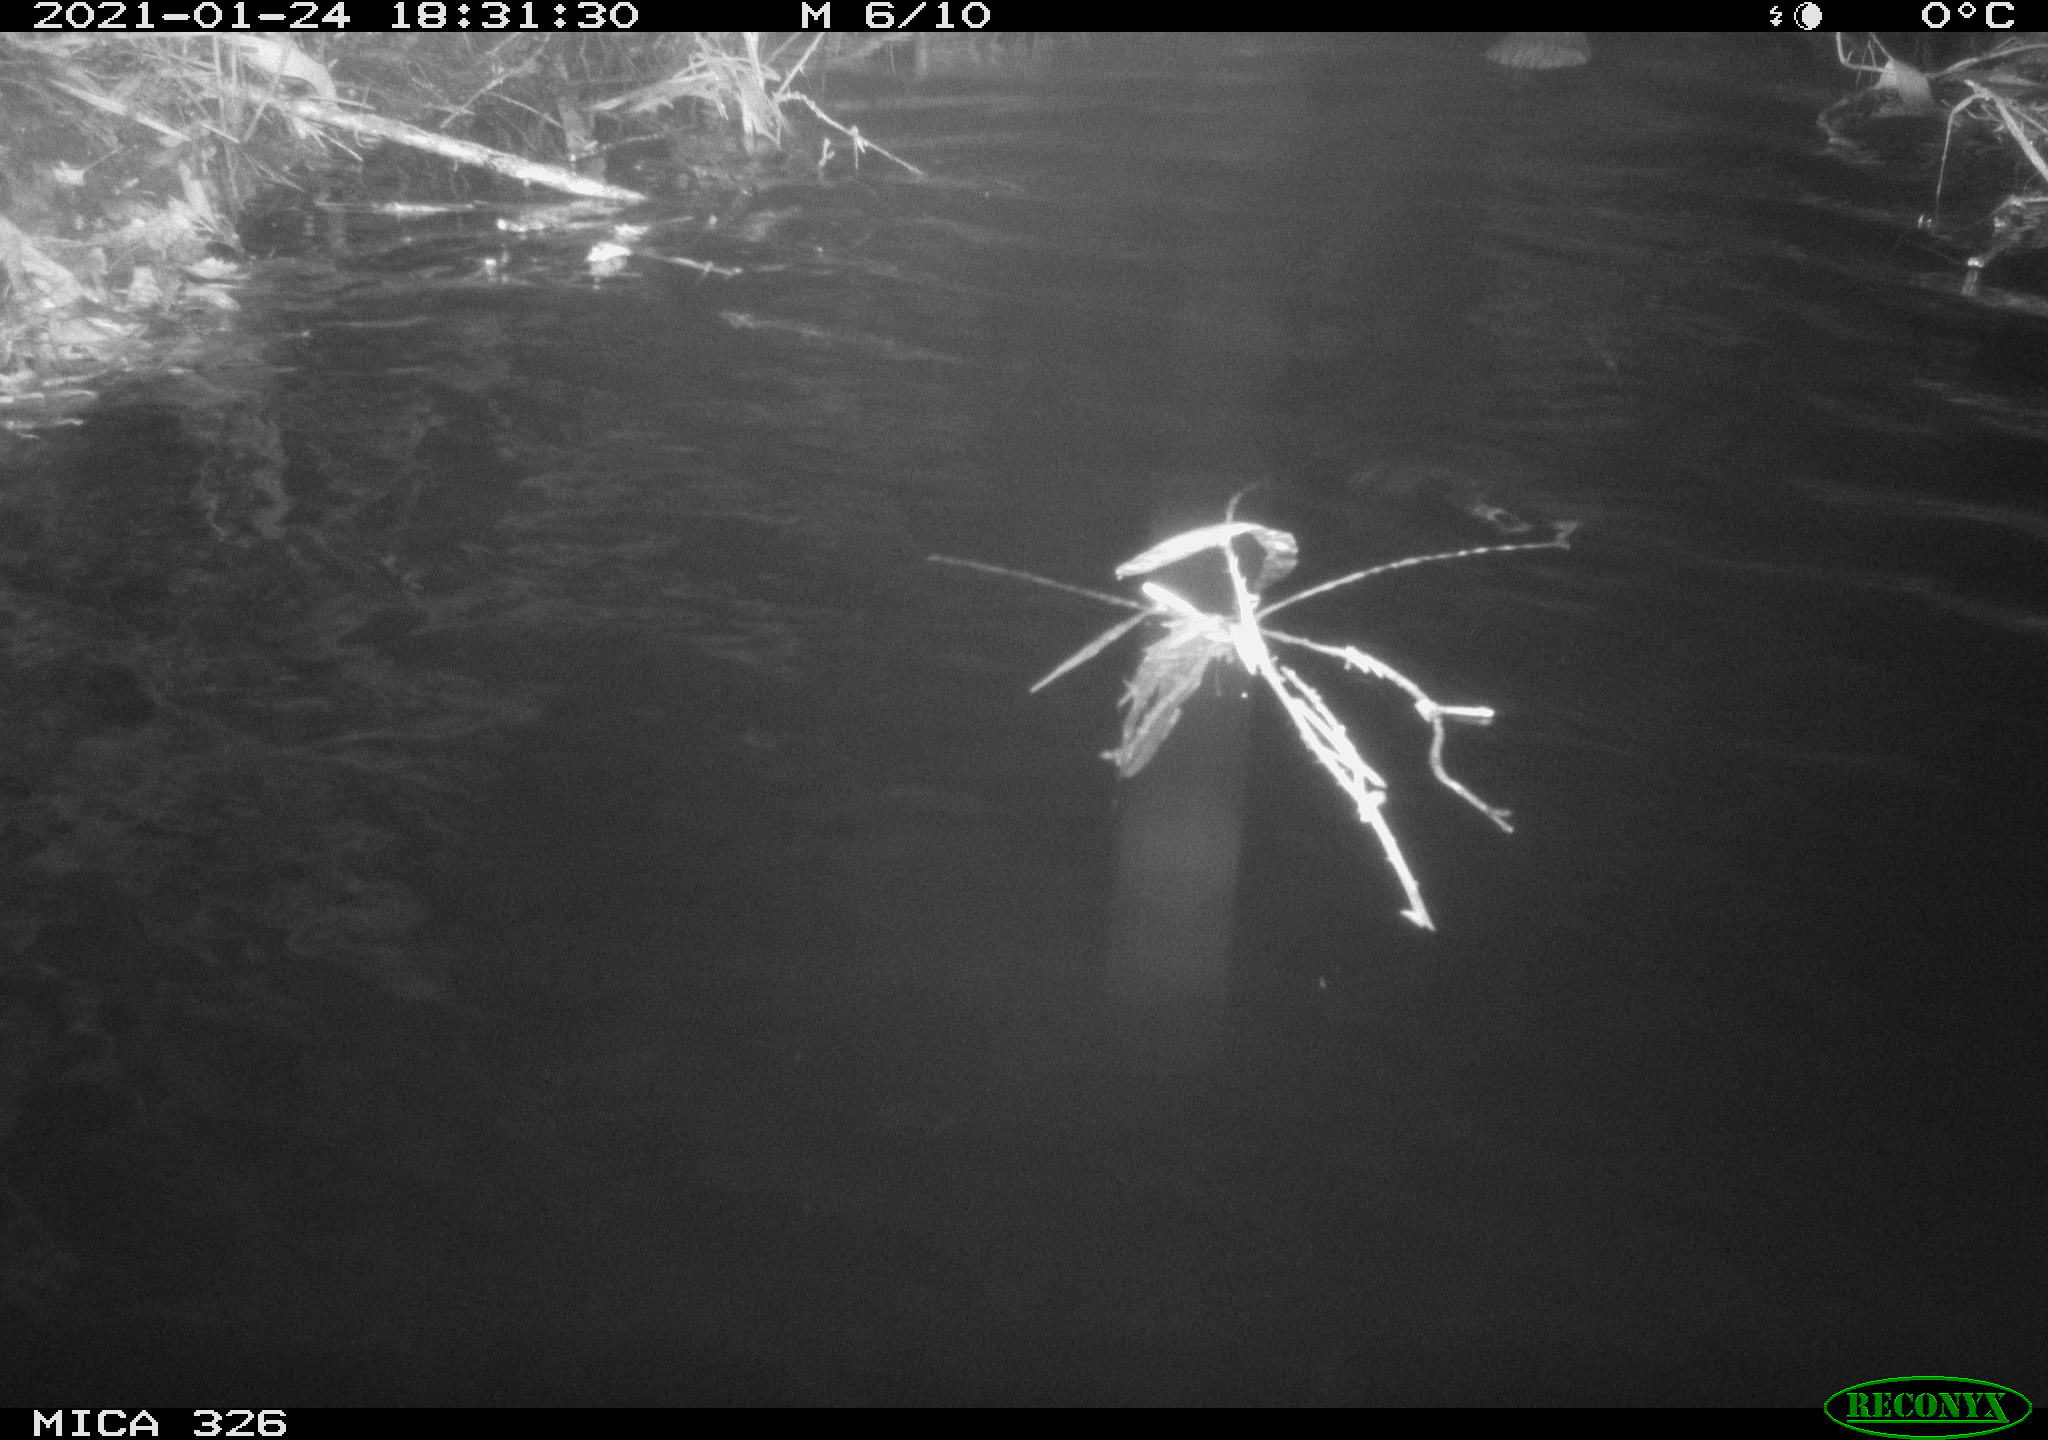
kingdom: Animalia
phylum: Chordata
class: Mammalia
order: Rodentia
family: Cricetidae
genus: Ondatra
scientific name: Ondatra zibethicus
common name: Muskrat
